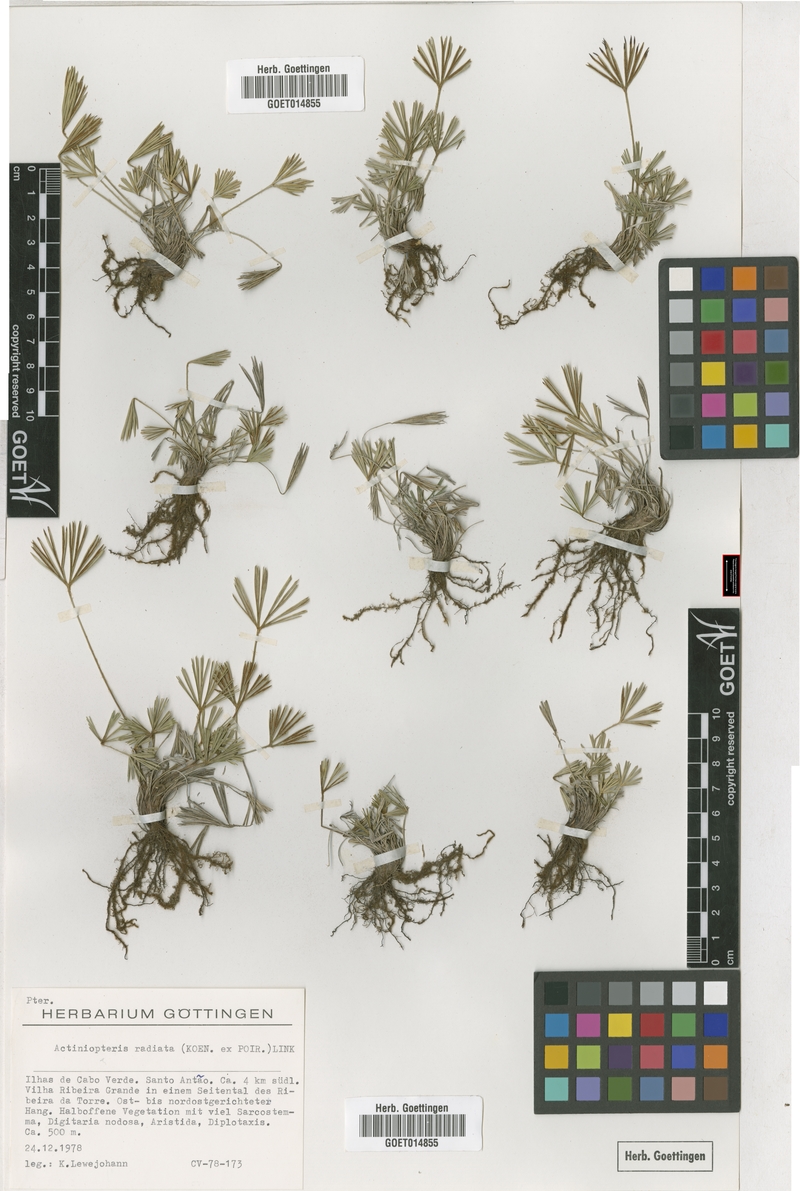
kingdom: Plantae
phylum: Tracheophyta
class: Polypodiopsida
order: Polypodiales
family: Pteridaceae
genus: Actiniopteris
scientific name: Actiniopteris radiata
